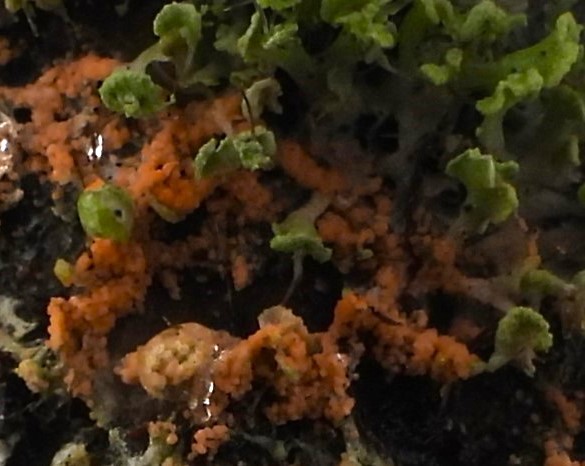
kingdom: Fungi
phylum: Basidiomycota
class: Agaricomycetes
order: Corticiales
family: Corticiaceae
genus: Erythricium
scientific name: Erythricium aurantiacum
